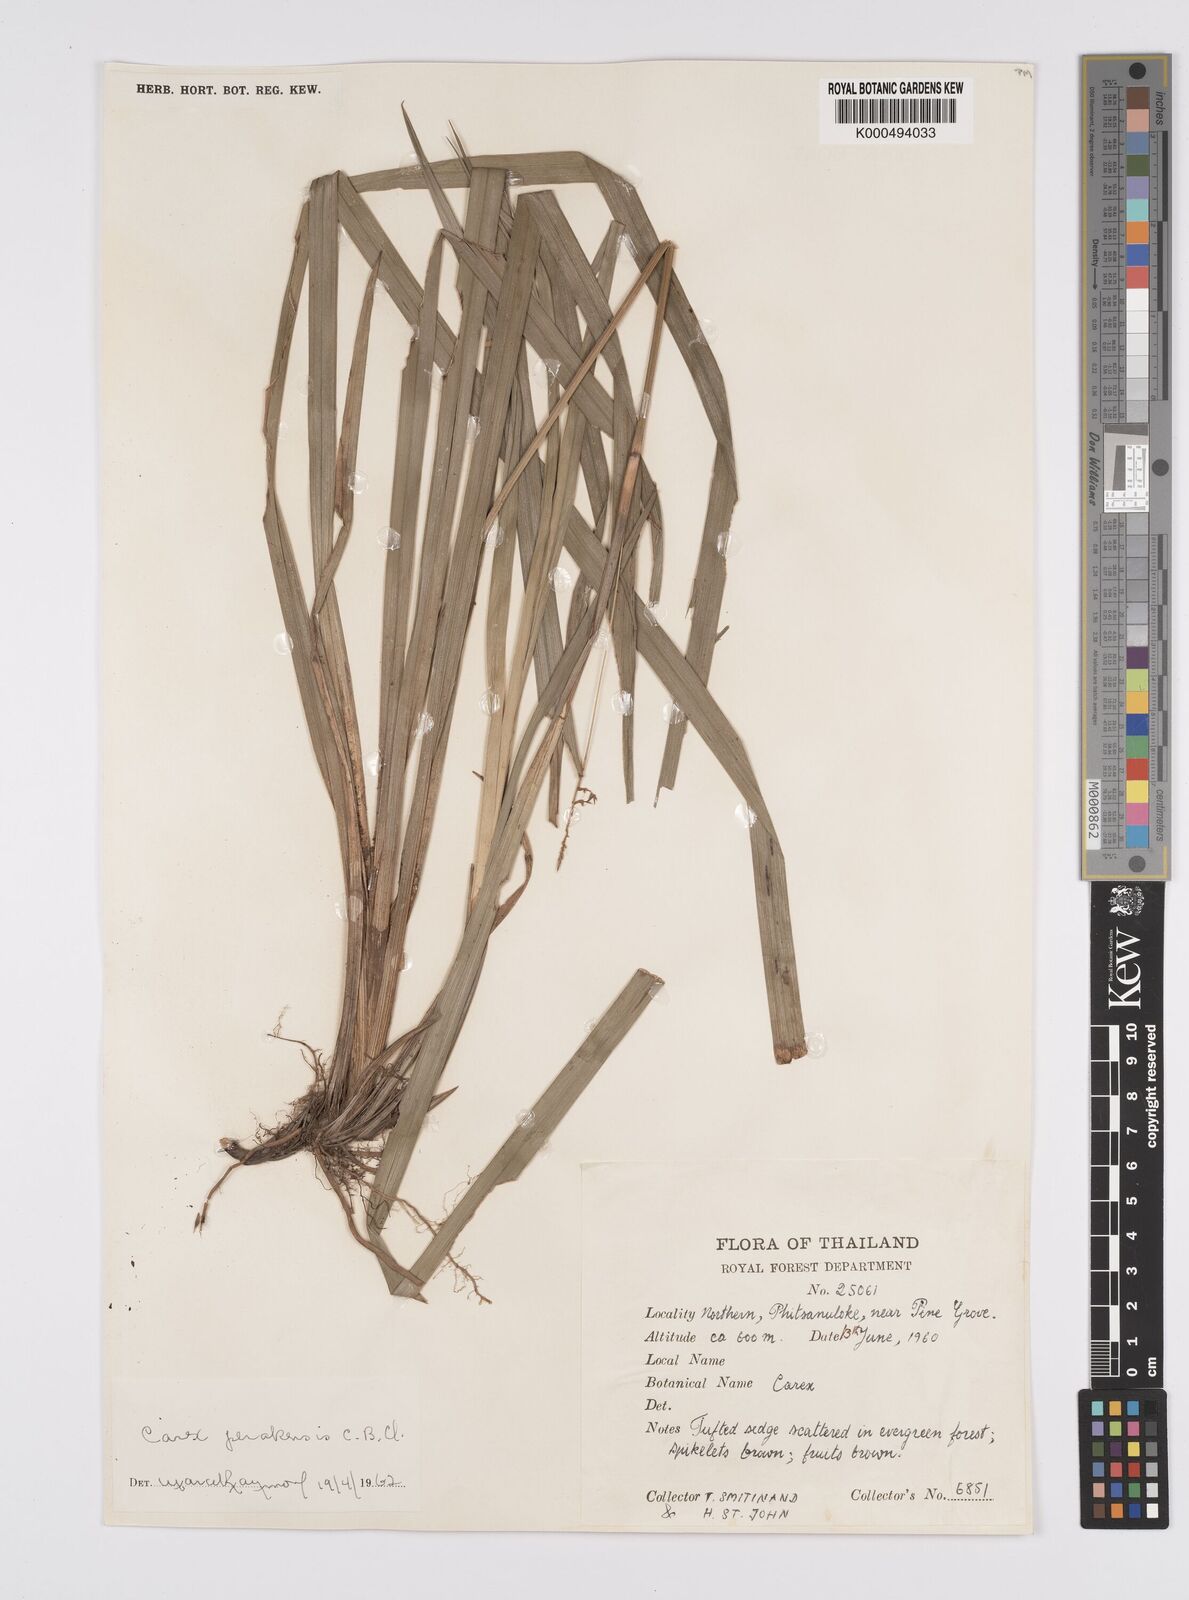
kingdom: Plantae
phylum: Tracheophyta
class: Liliopsida
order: Poales
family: Cyperaceae
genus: Carex
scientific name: Carex perakensis
